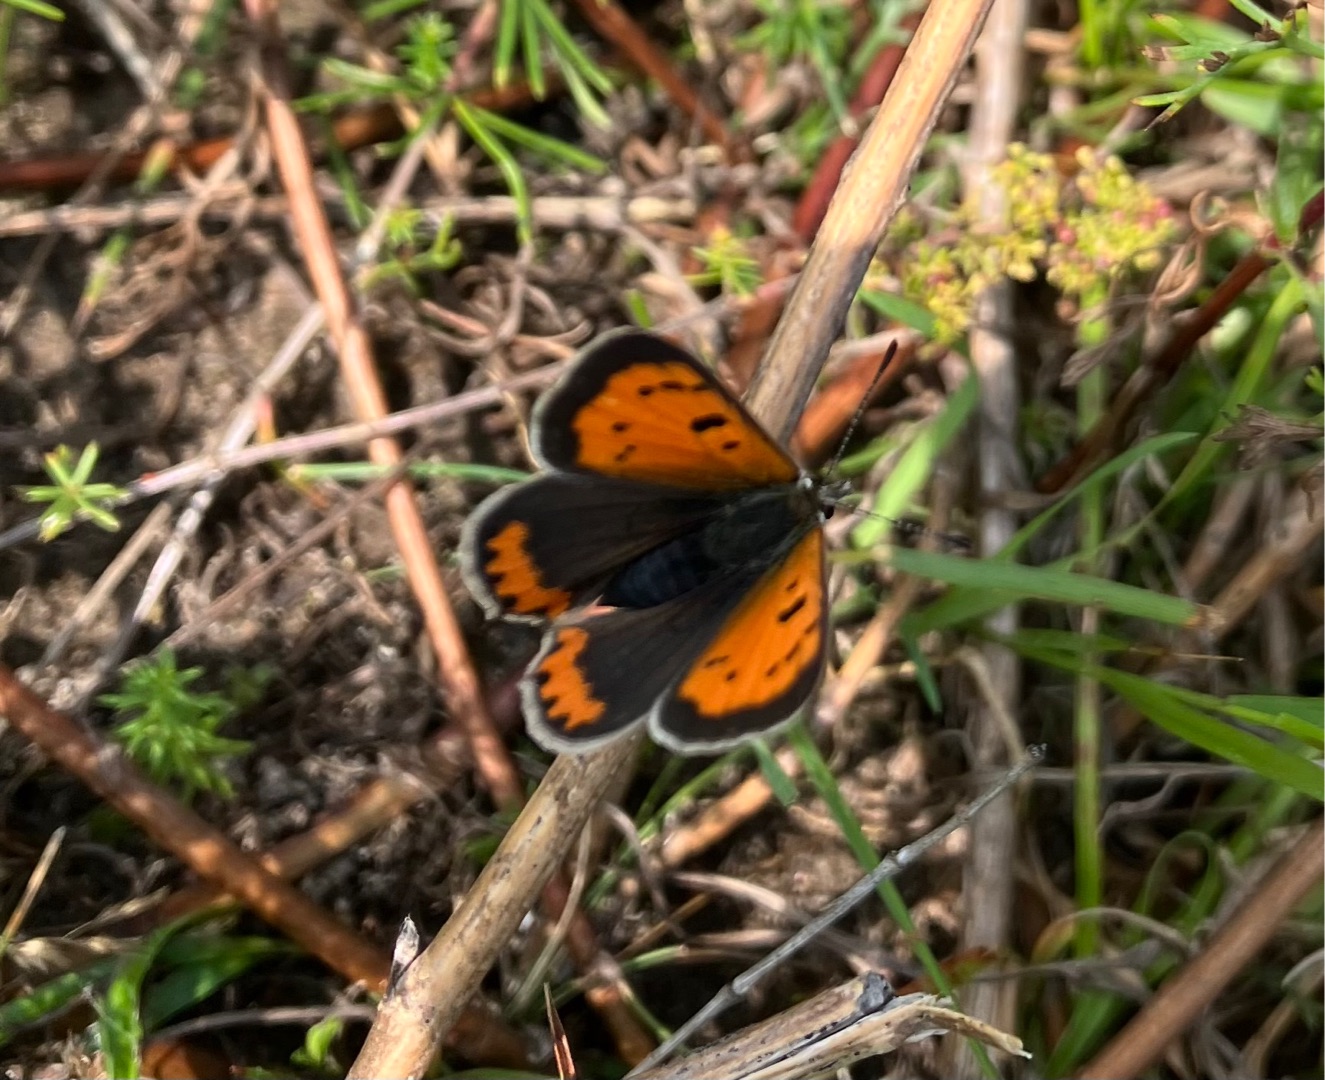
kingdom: Animalia
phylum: Arthropoda
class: Insecta
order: Lepidoptera
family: Lycaenidae
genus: Lycaena
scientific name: Lycaena phlaeas
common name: Lille ildfugl
